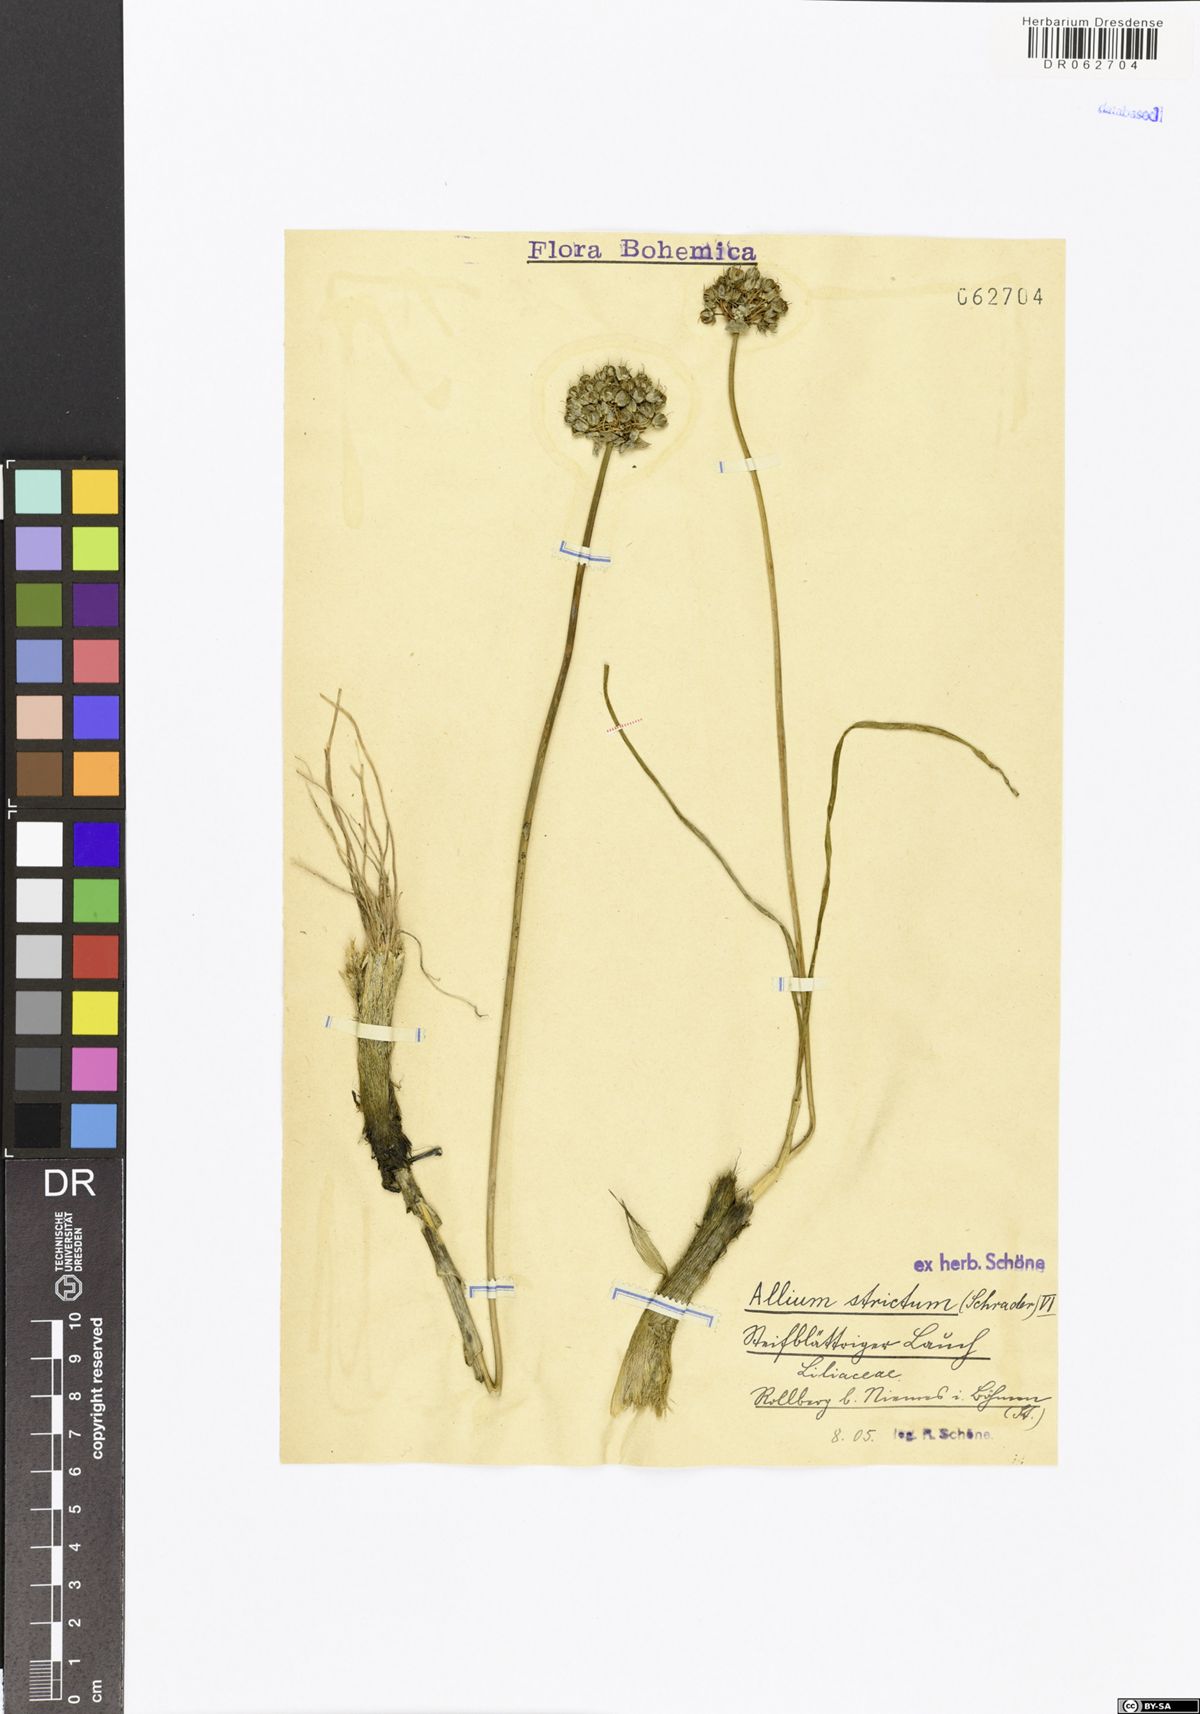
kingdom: Plantae
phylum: Tracheophyta
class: Liliopsida
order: Asparagales
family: Amaryllidaceae
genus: Allium
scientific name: Allium strictum
